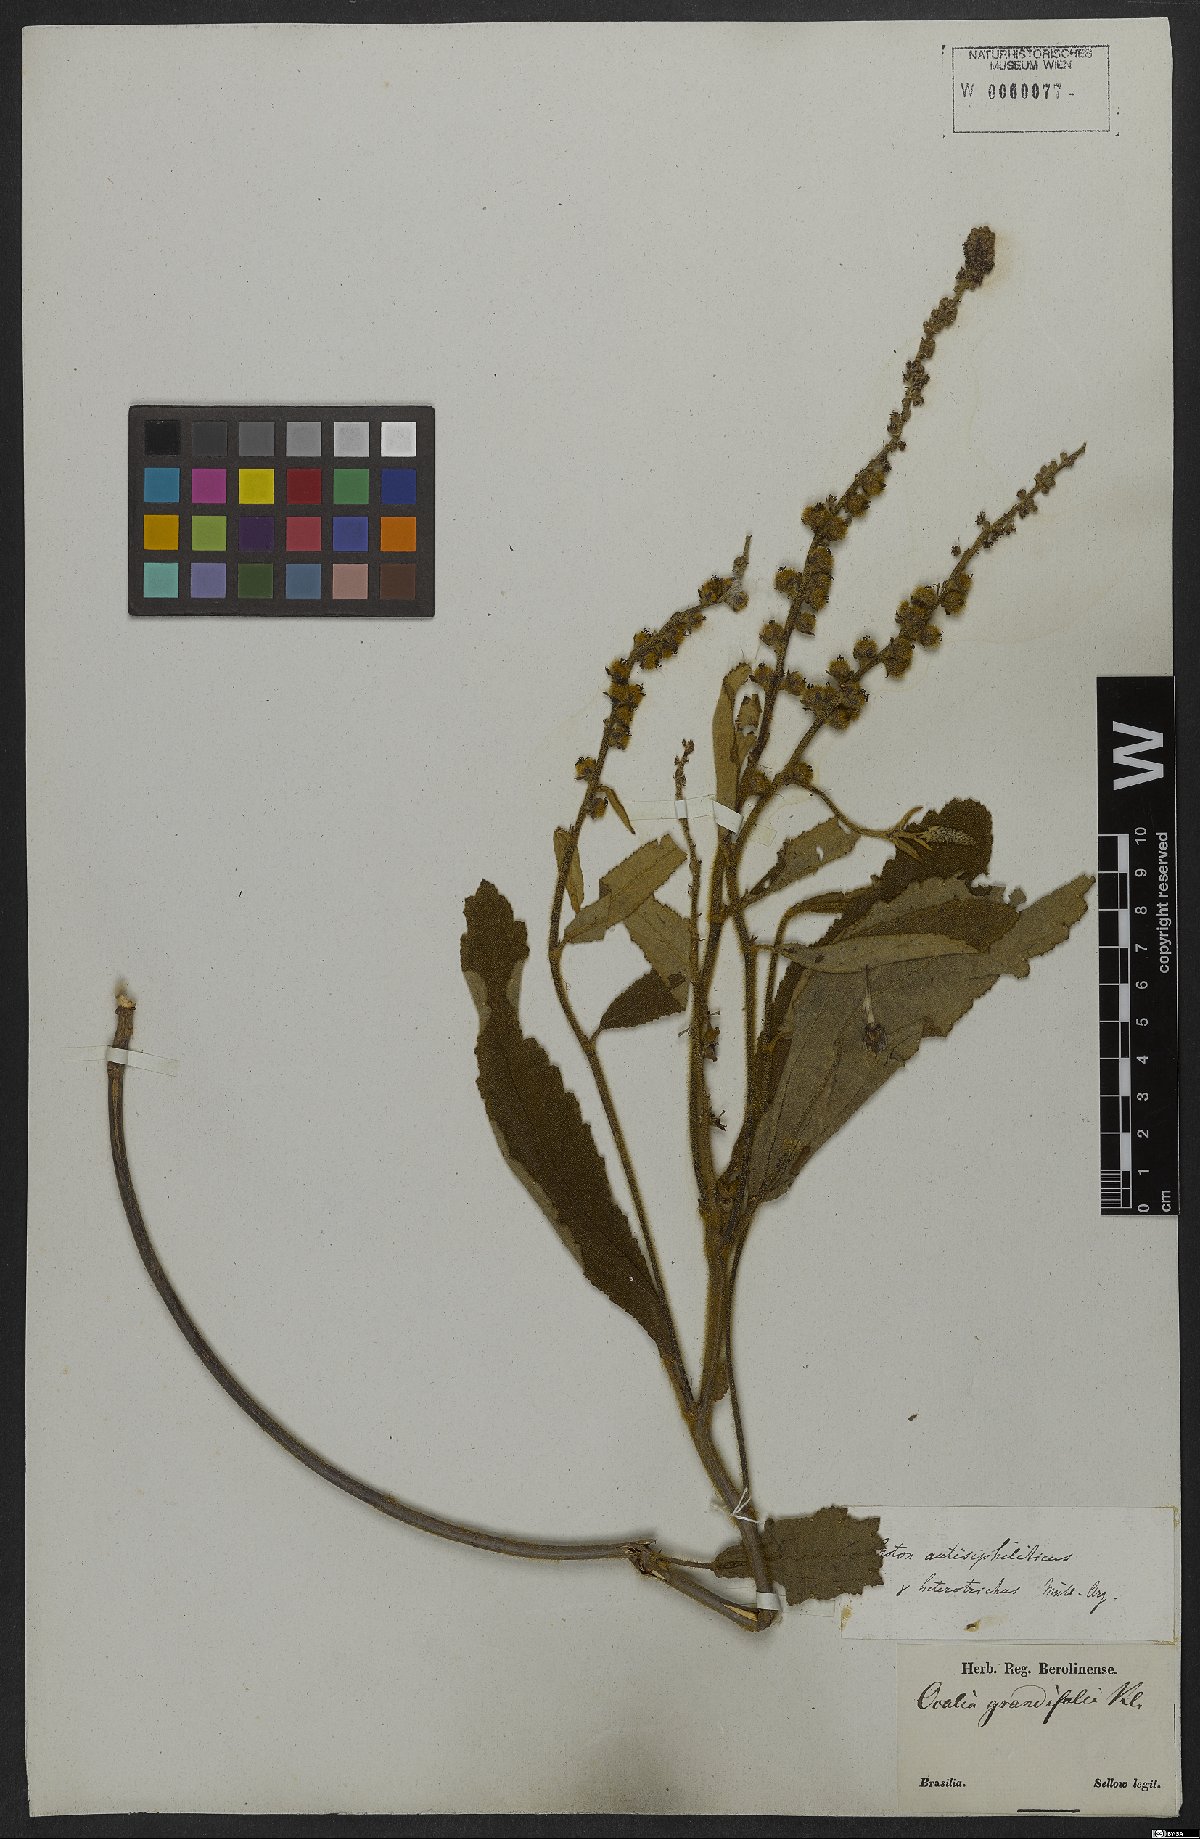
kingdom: Plantae
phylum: Tracheophyta
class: Magnoliopsida
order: Malpighiales
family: Euphorbiaceae
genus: Croton
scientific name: Croton antisyphiliticus
